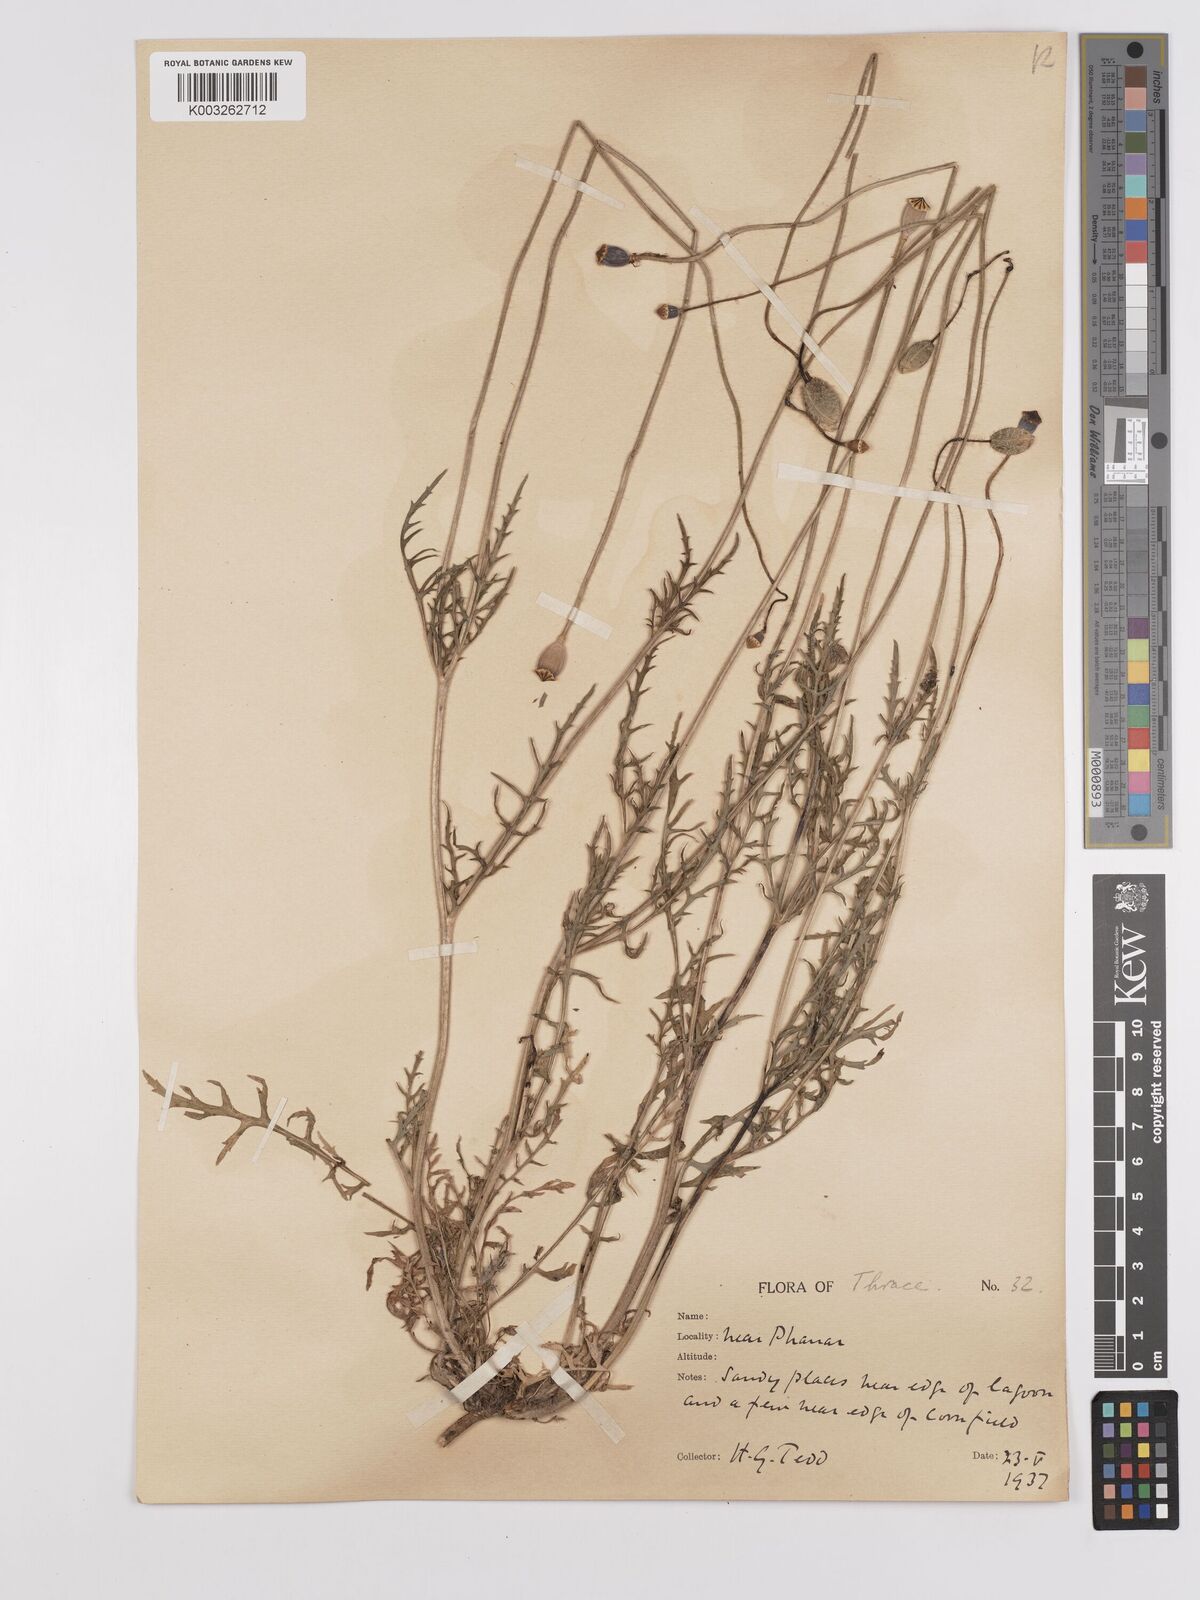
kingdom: Plantae
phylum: Tracheophyta
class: Magnoliopsida
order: Ranunculales
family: Papaveraceae
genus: Papaver
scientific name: Papaver
